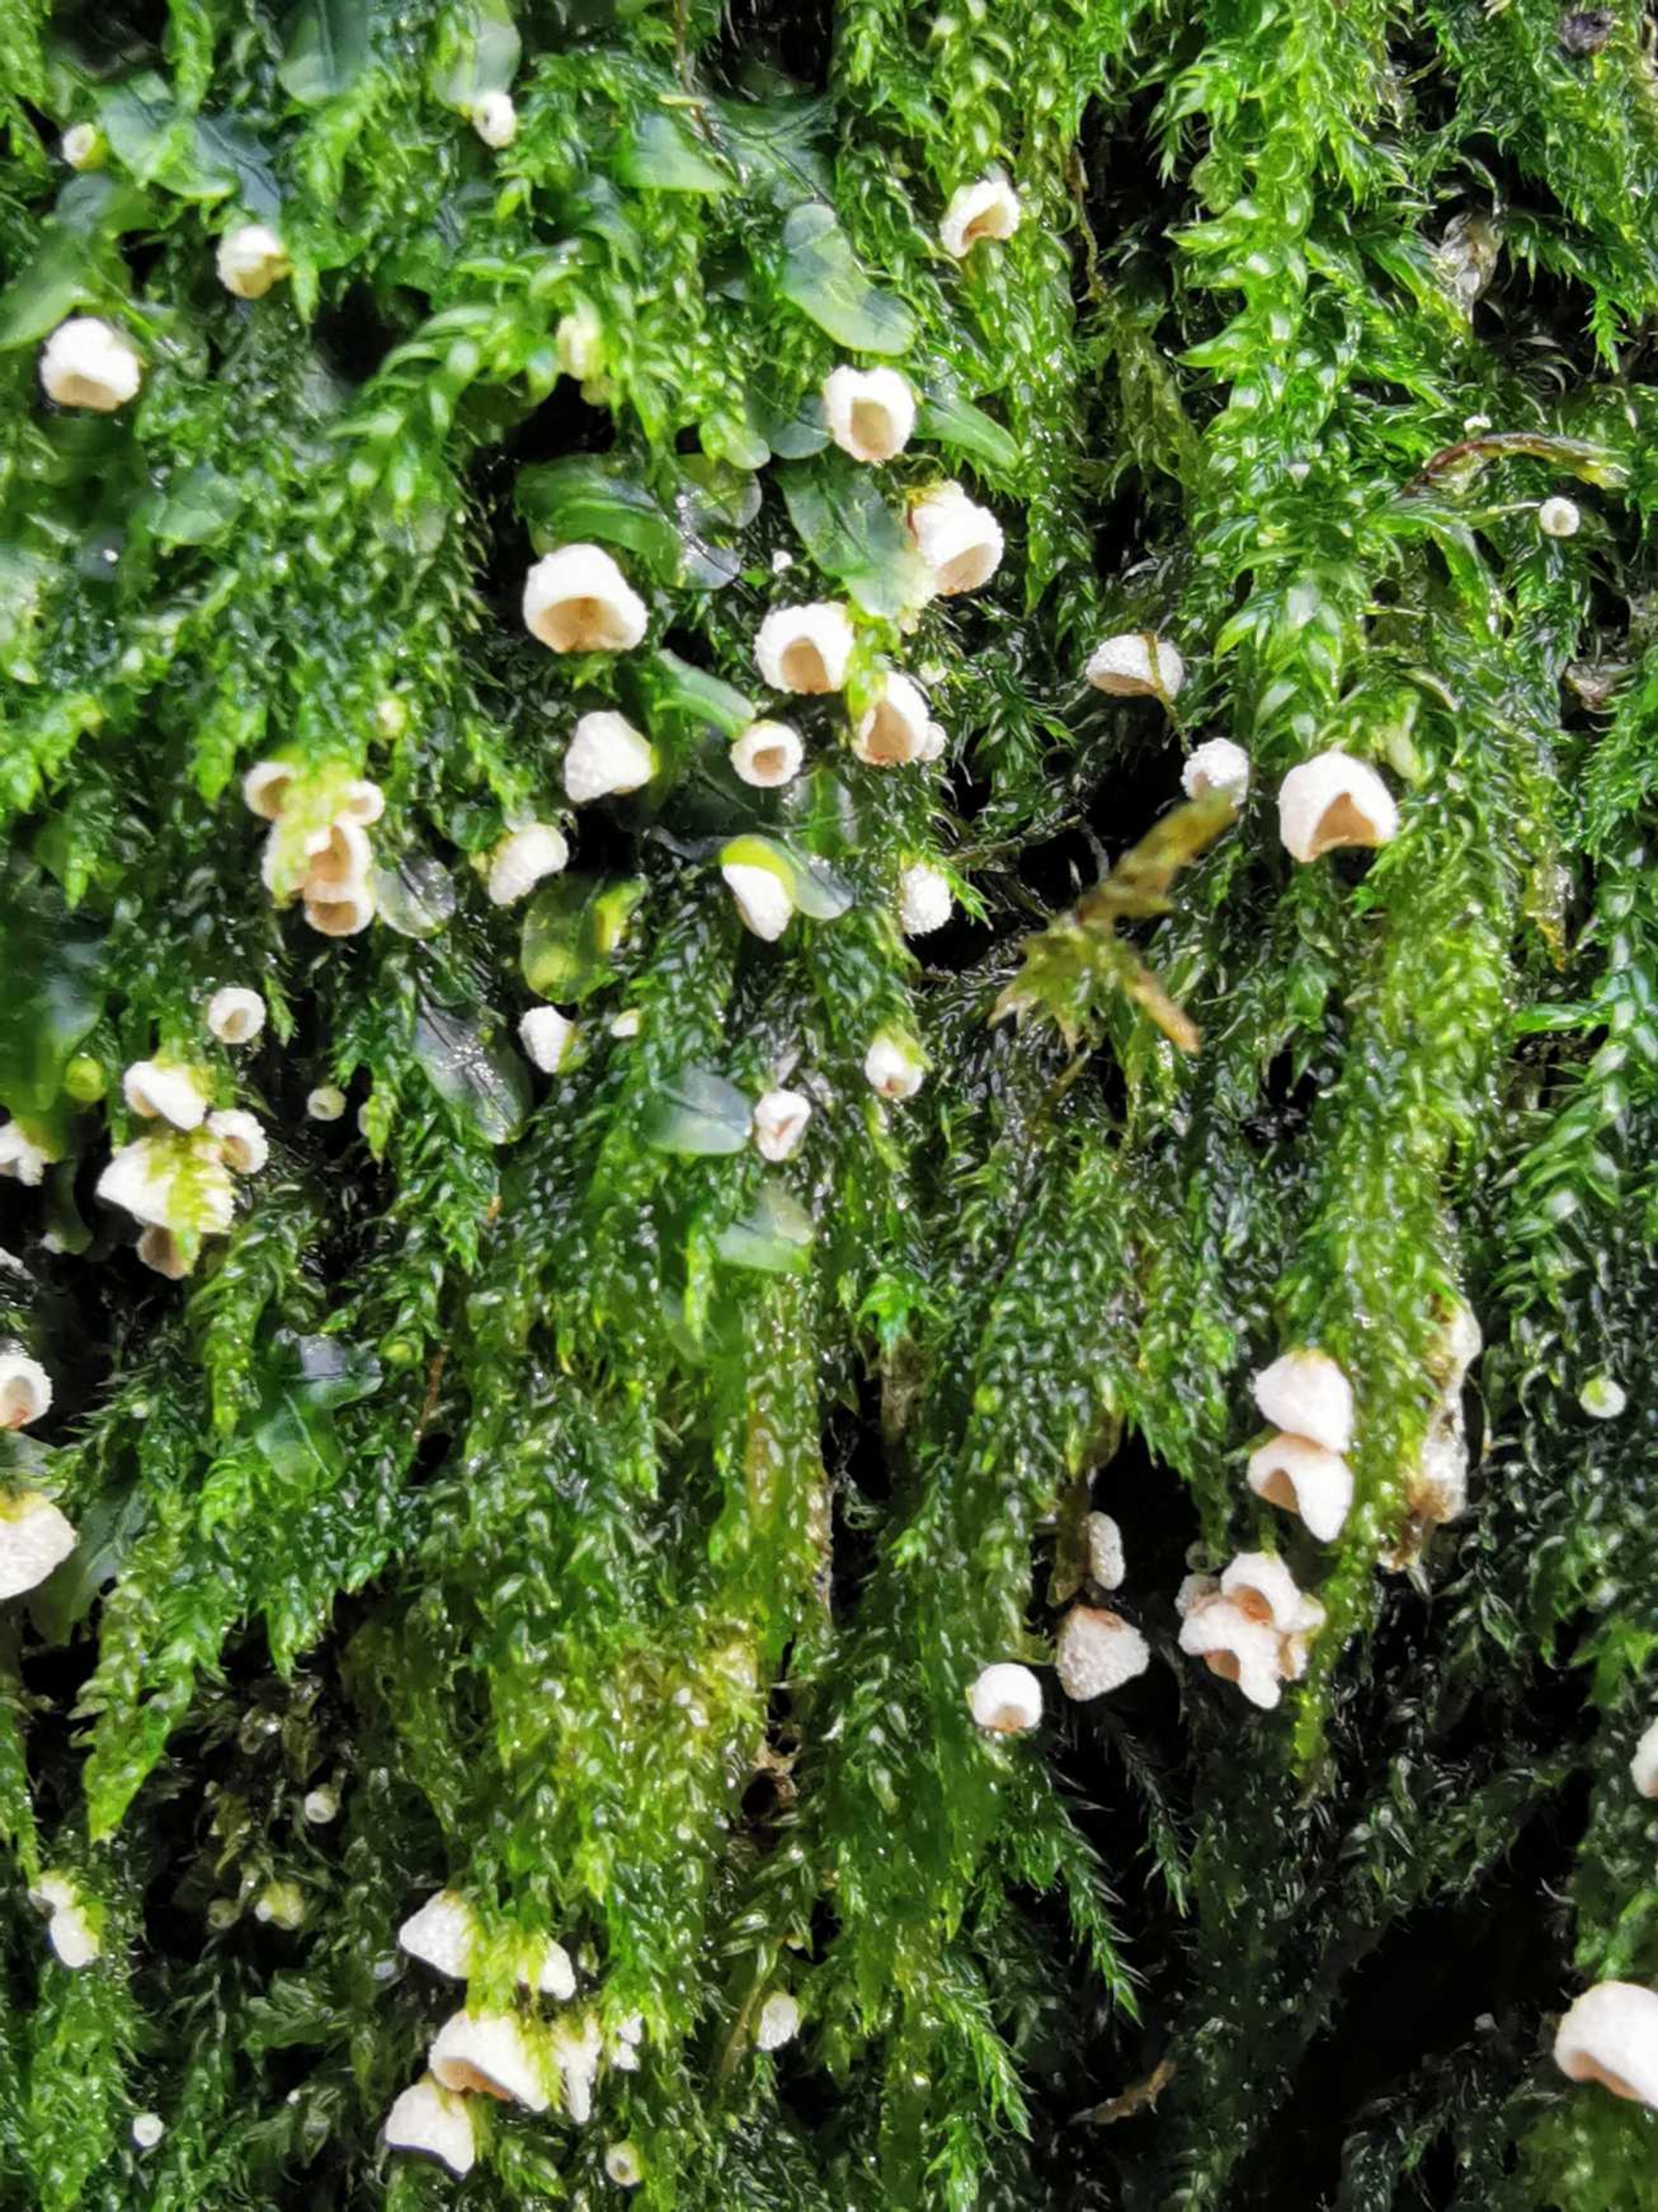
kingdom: Fungi
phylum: Basidiomycota
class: Agaricomycetes
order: Agaricales
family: Chromocyphellaceae
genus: Chromocyphella
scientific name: Chromocyphella muscicola
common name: Muslingeskål
